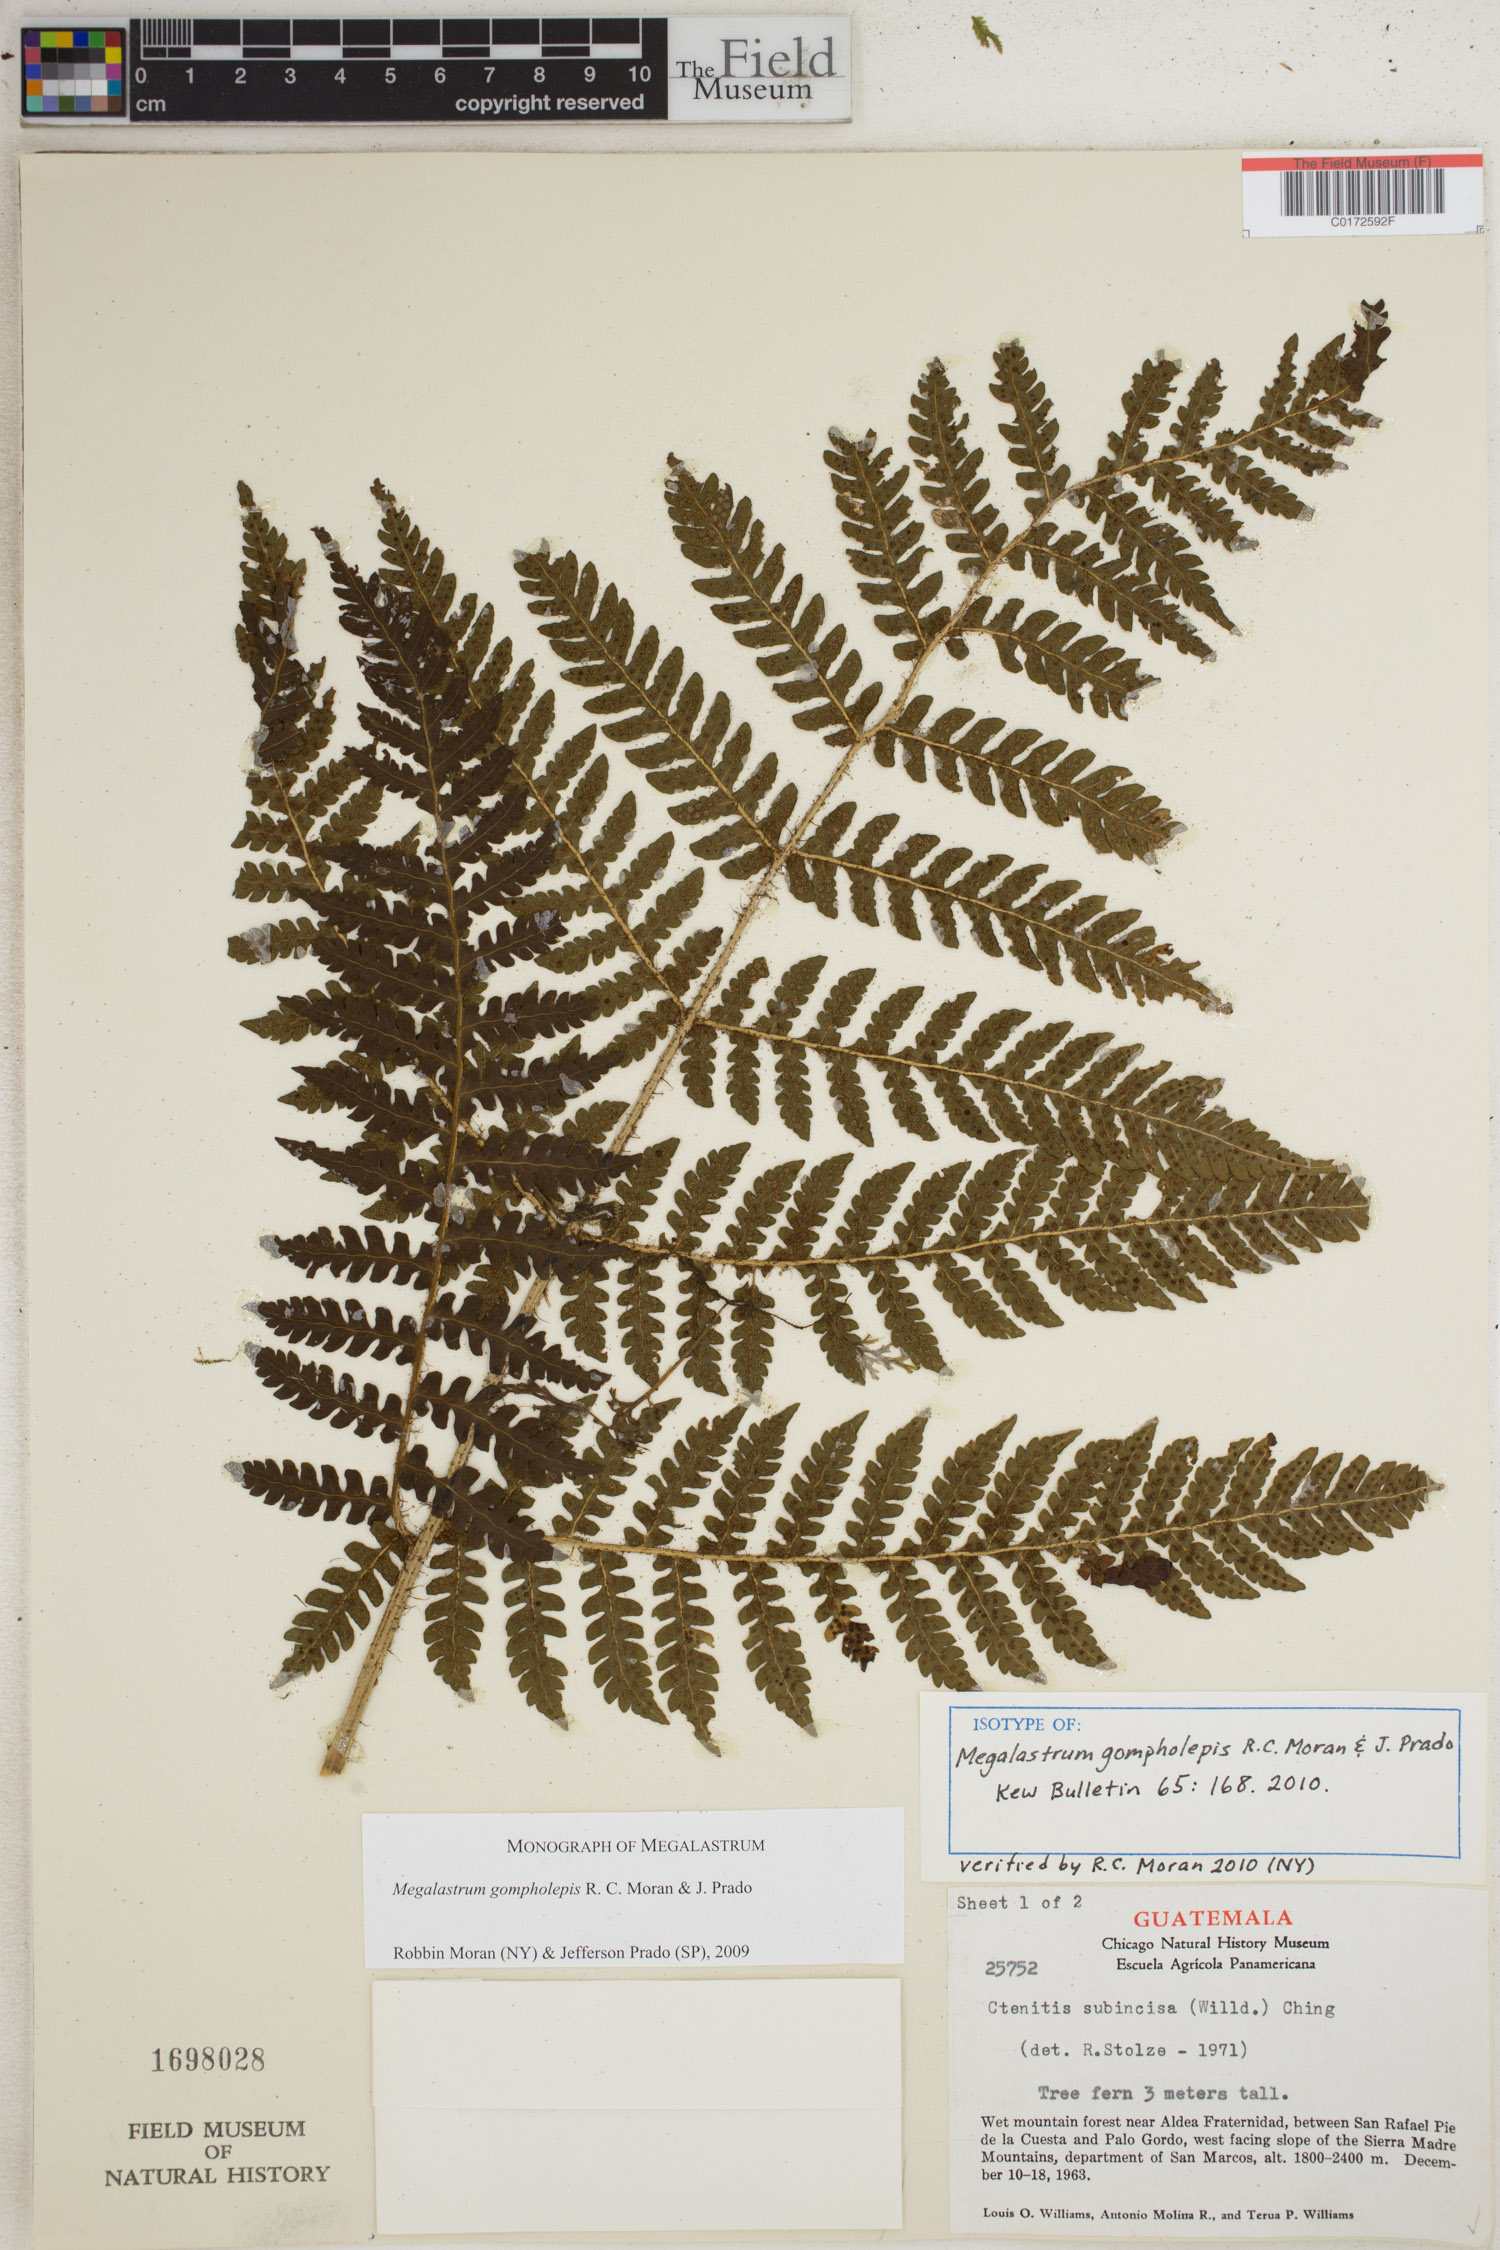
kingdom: Plantae
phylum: Tracheophyta
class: Polypodiopsida
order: Polypodiales
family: Dryopteridaceae
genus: Megalastrum
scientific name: Megalastrum gompholepis
